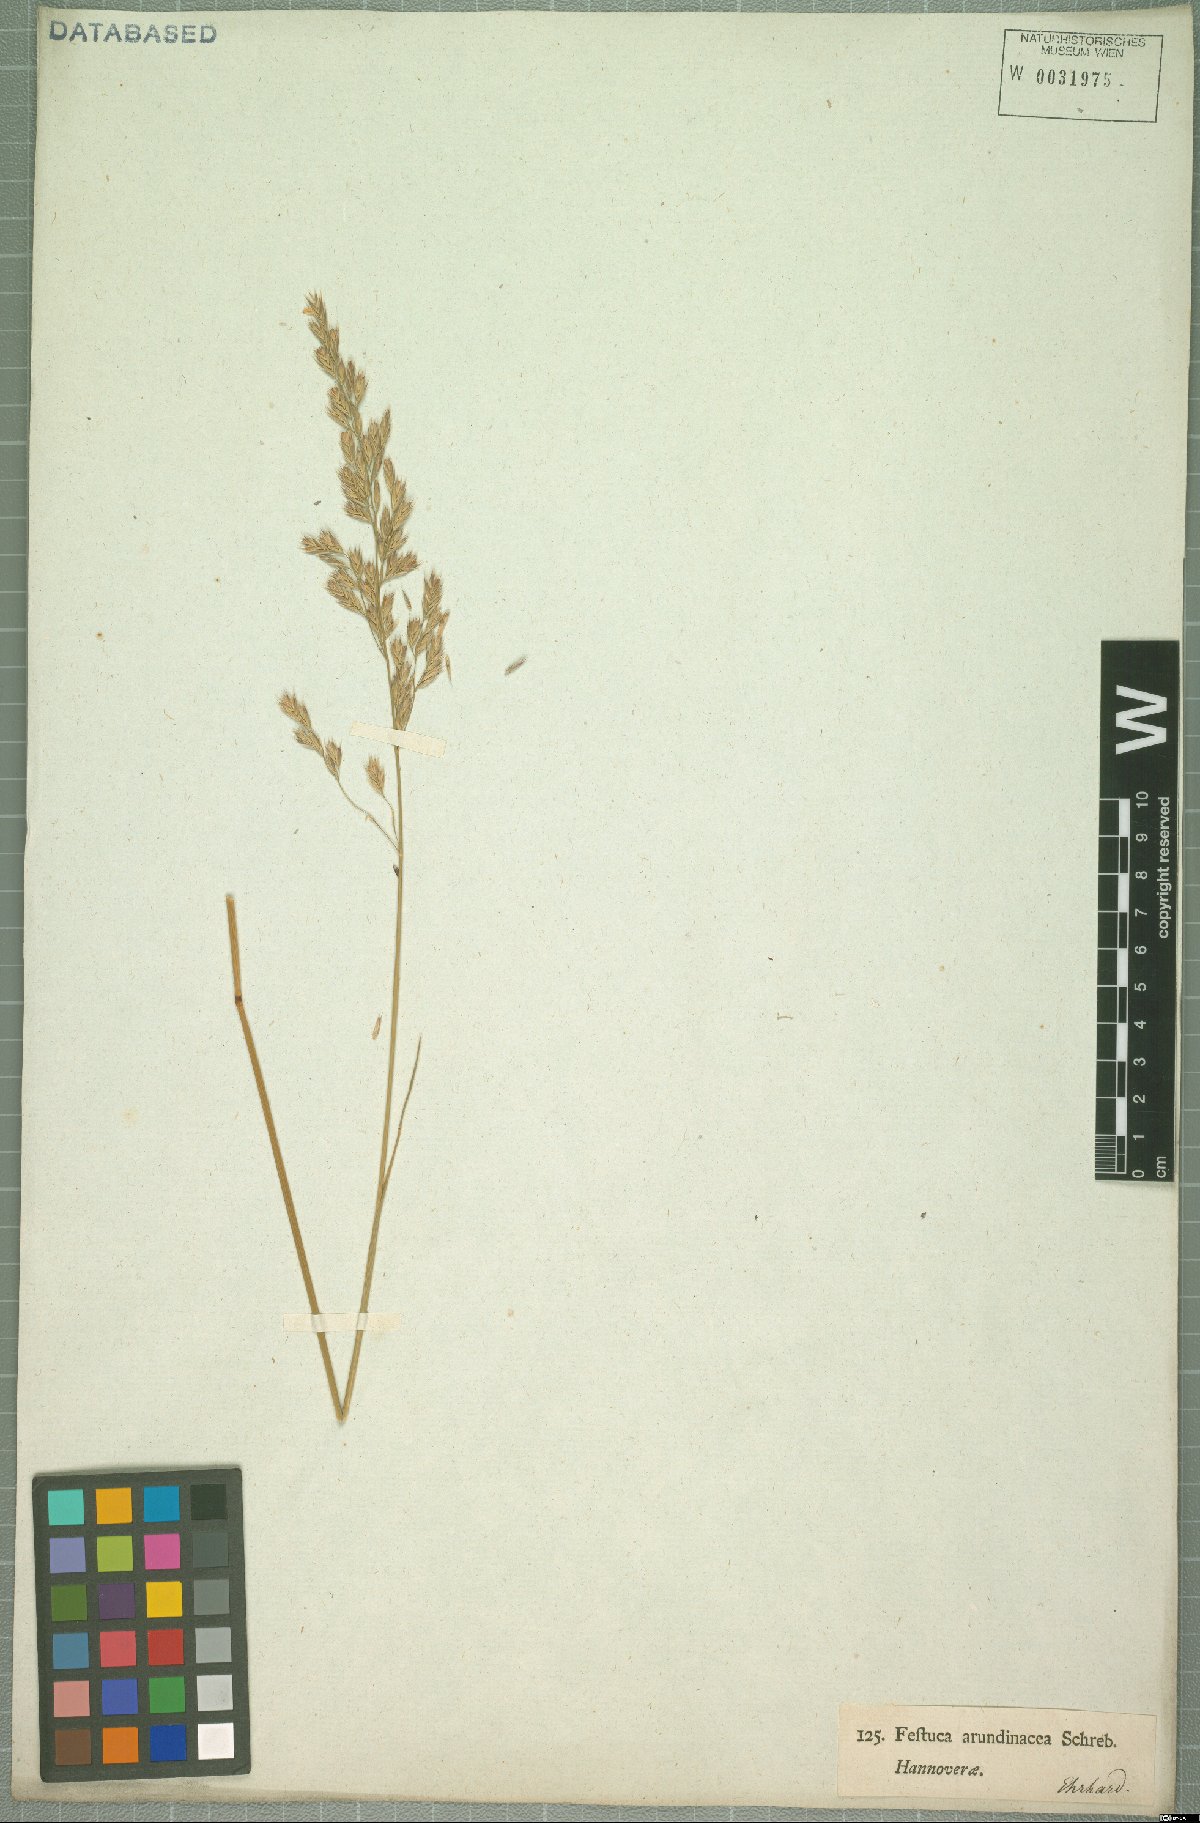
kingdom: Plantae
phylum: Tracheophyta
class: Liliopsida
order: Poales
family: Poaceae
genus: Lolium
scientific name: Lolium arundinaceum
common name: Reed fescue
